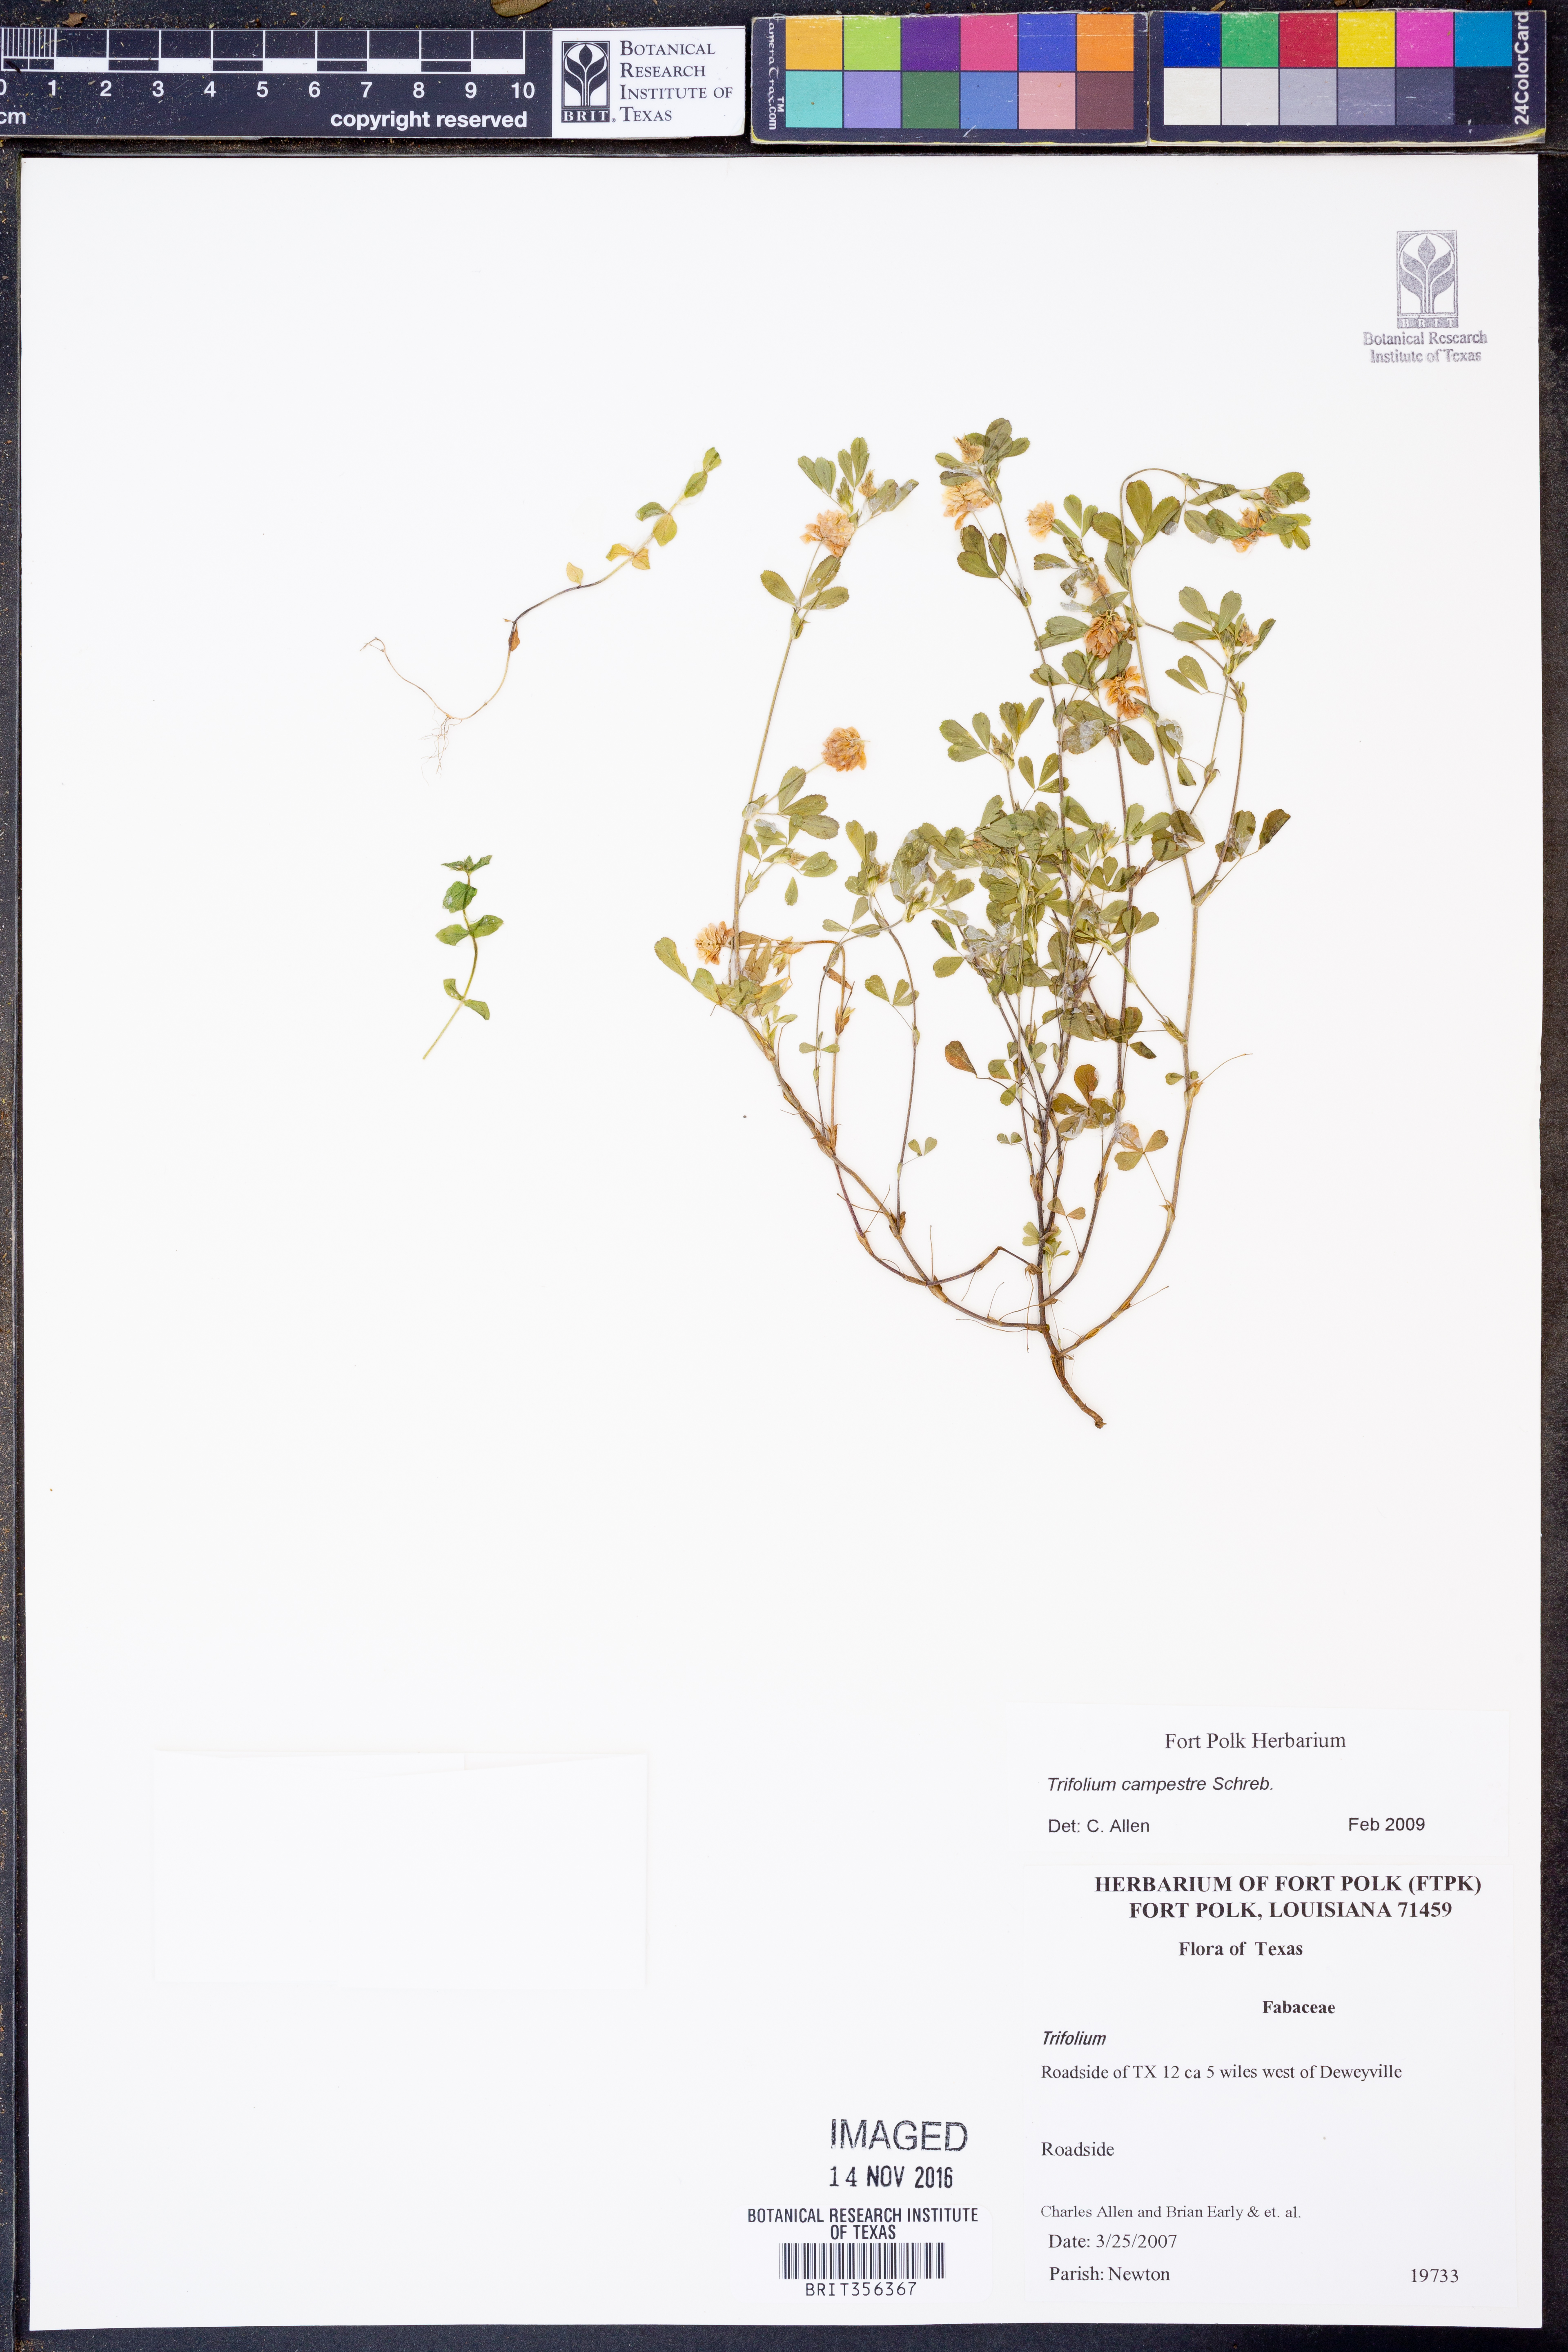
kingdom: Plantae
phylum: Tracheophyta
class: Magnoliopsida
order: Fabales
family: Fabaceae
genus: Trifolium
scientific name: Trifolium campestre
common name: Field clover
